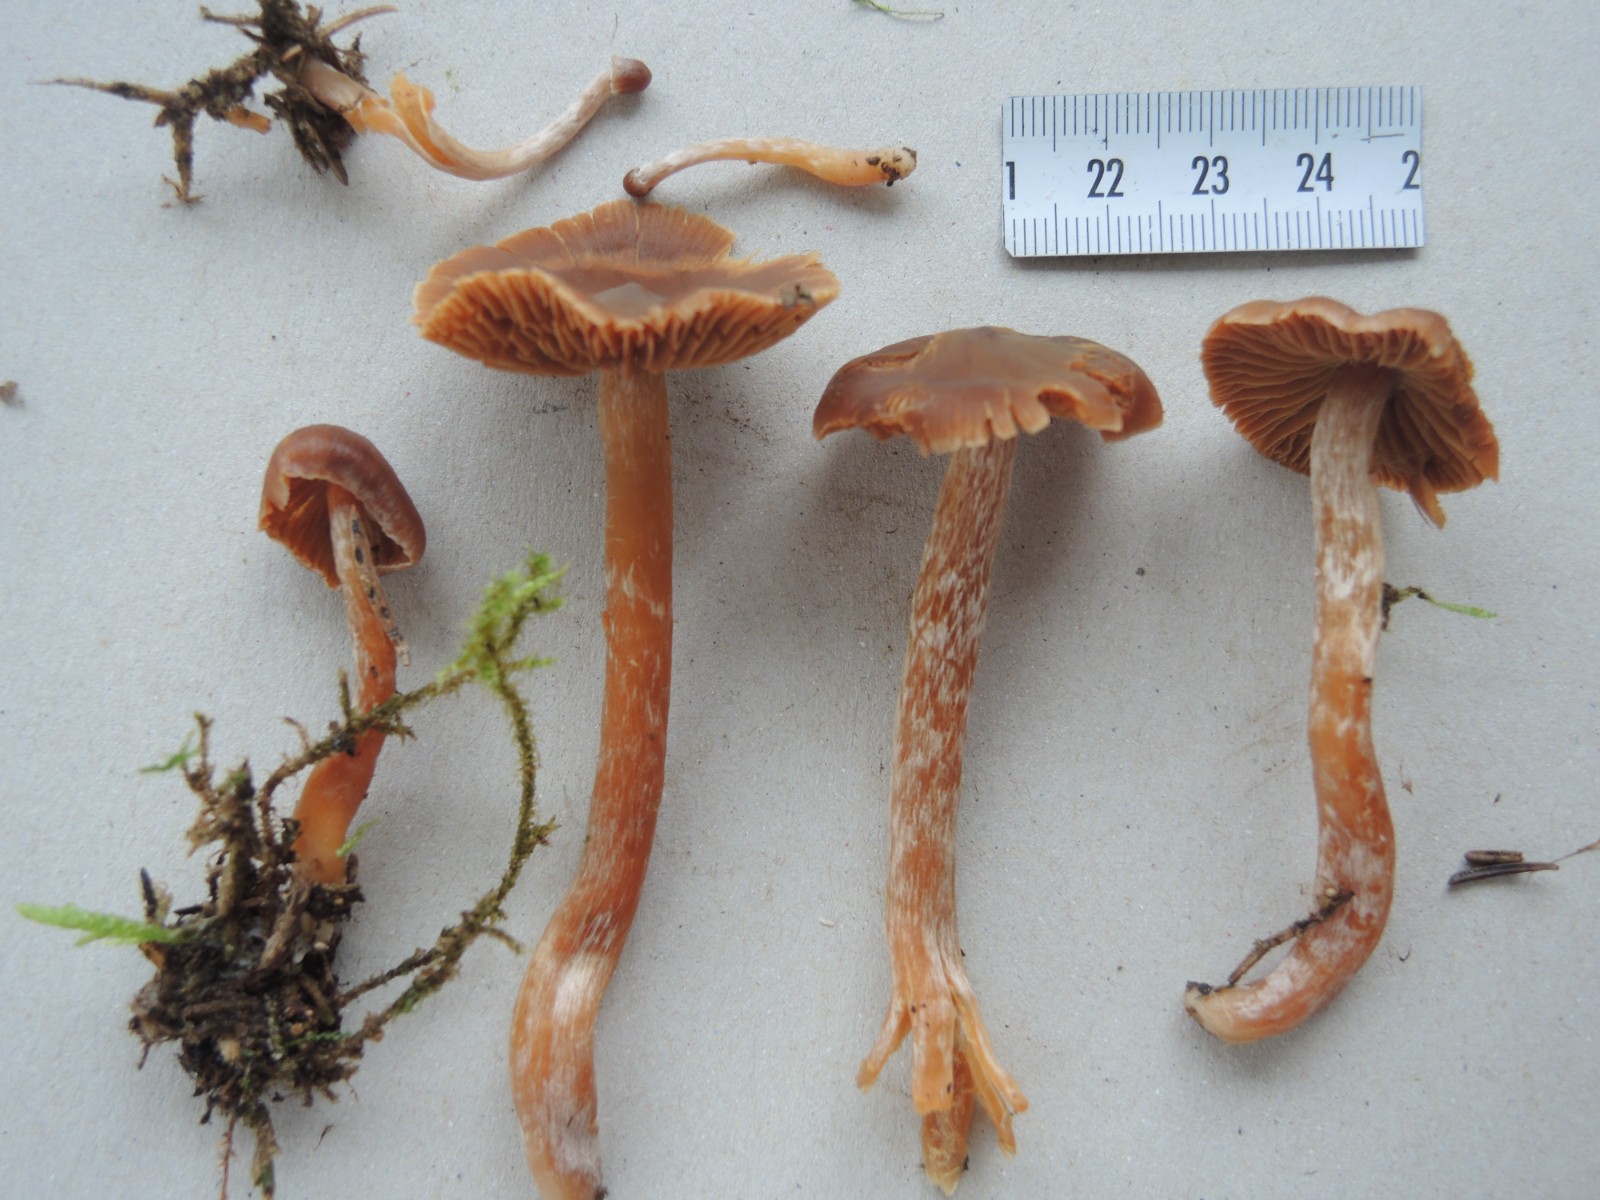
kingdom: Fungi
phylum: Basidiomycota
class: Agaricomycetes
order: Agaricales
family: Cortinariaceae
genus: Cortinarius
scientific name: Cortinarius
